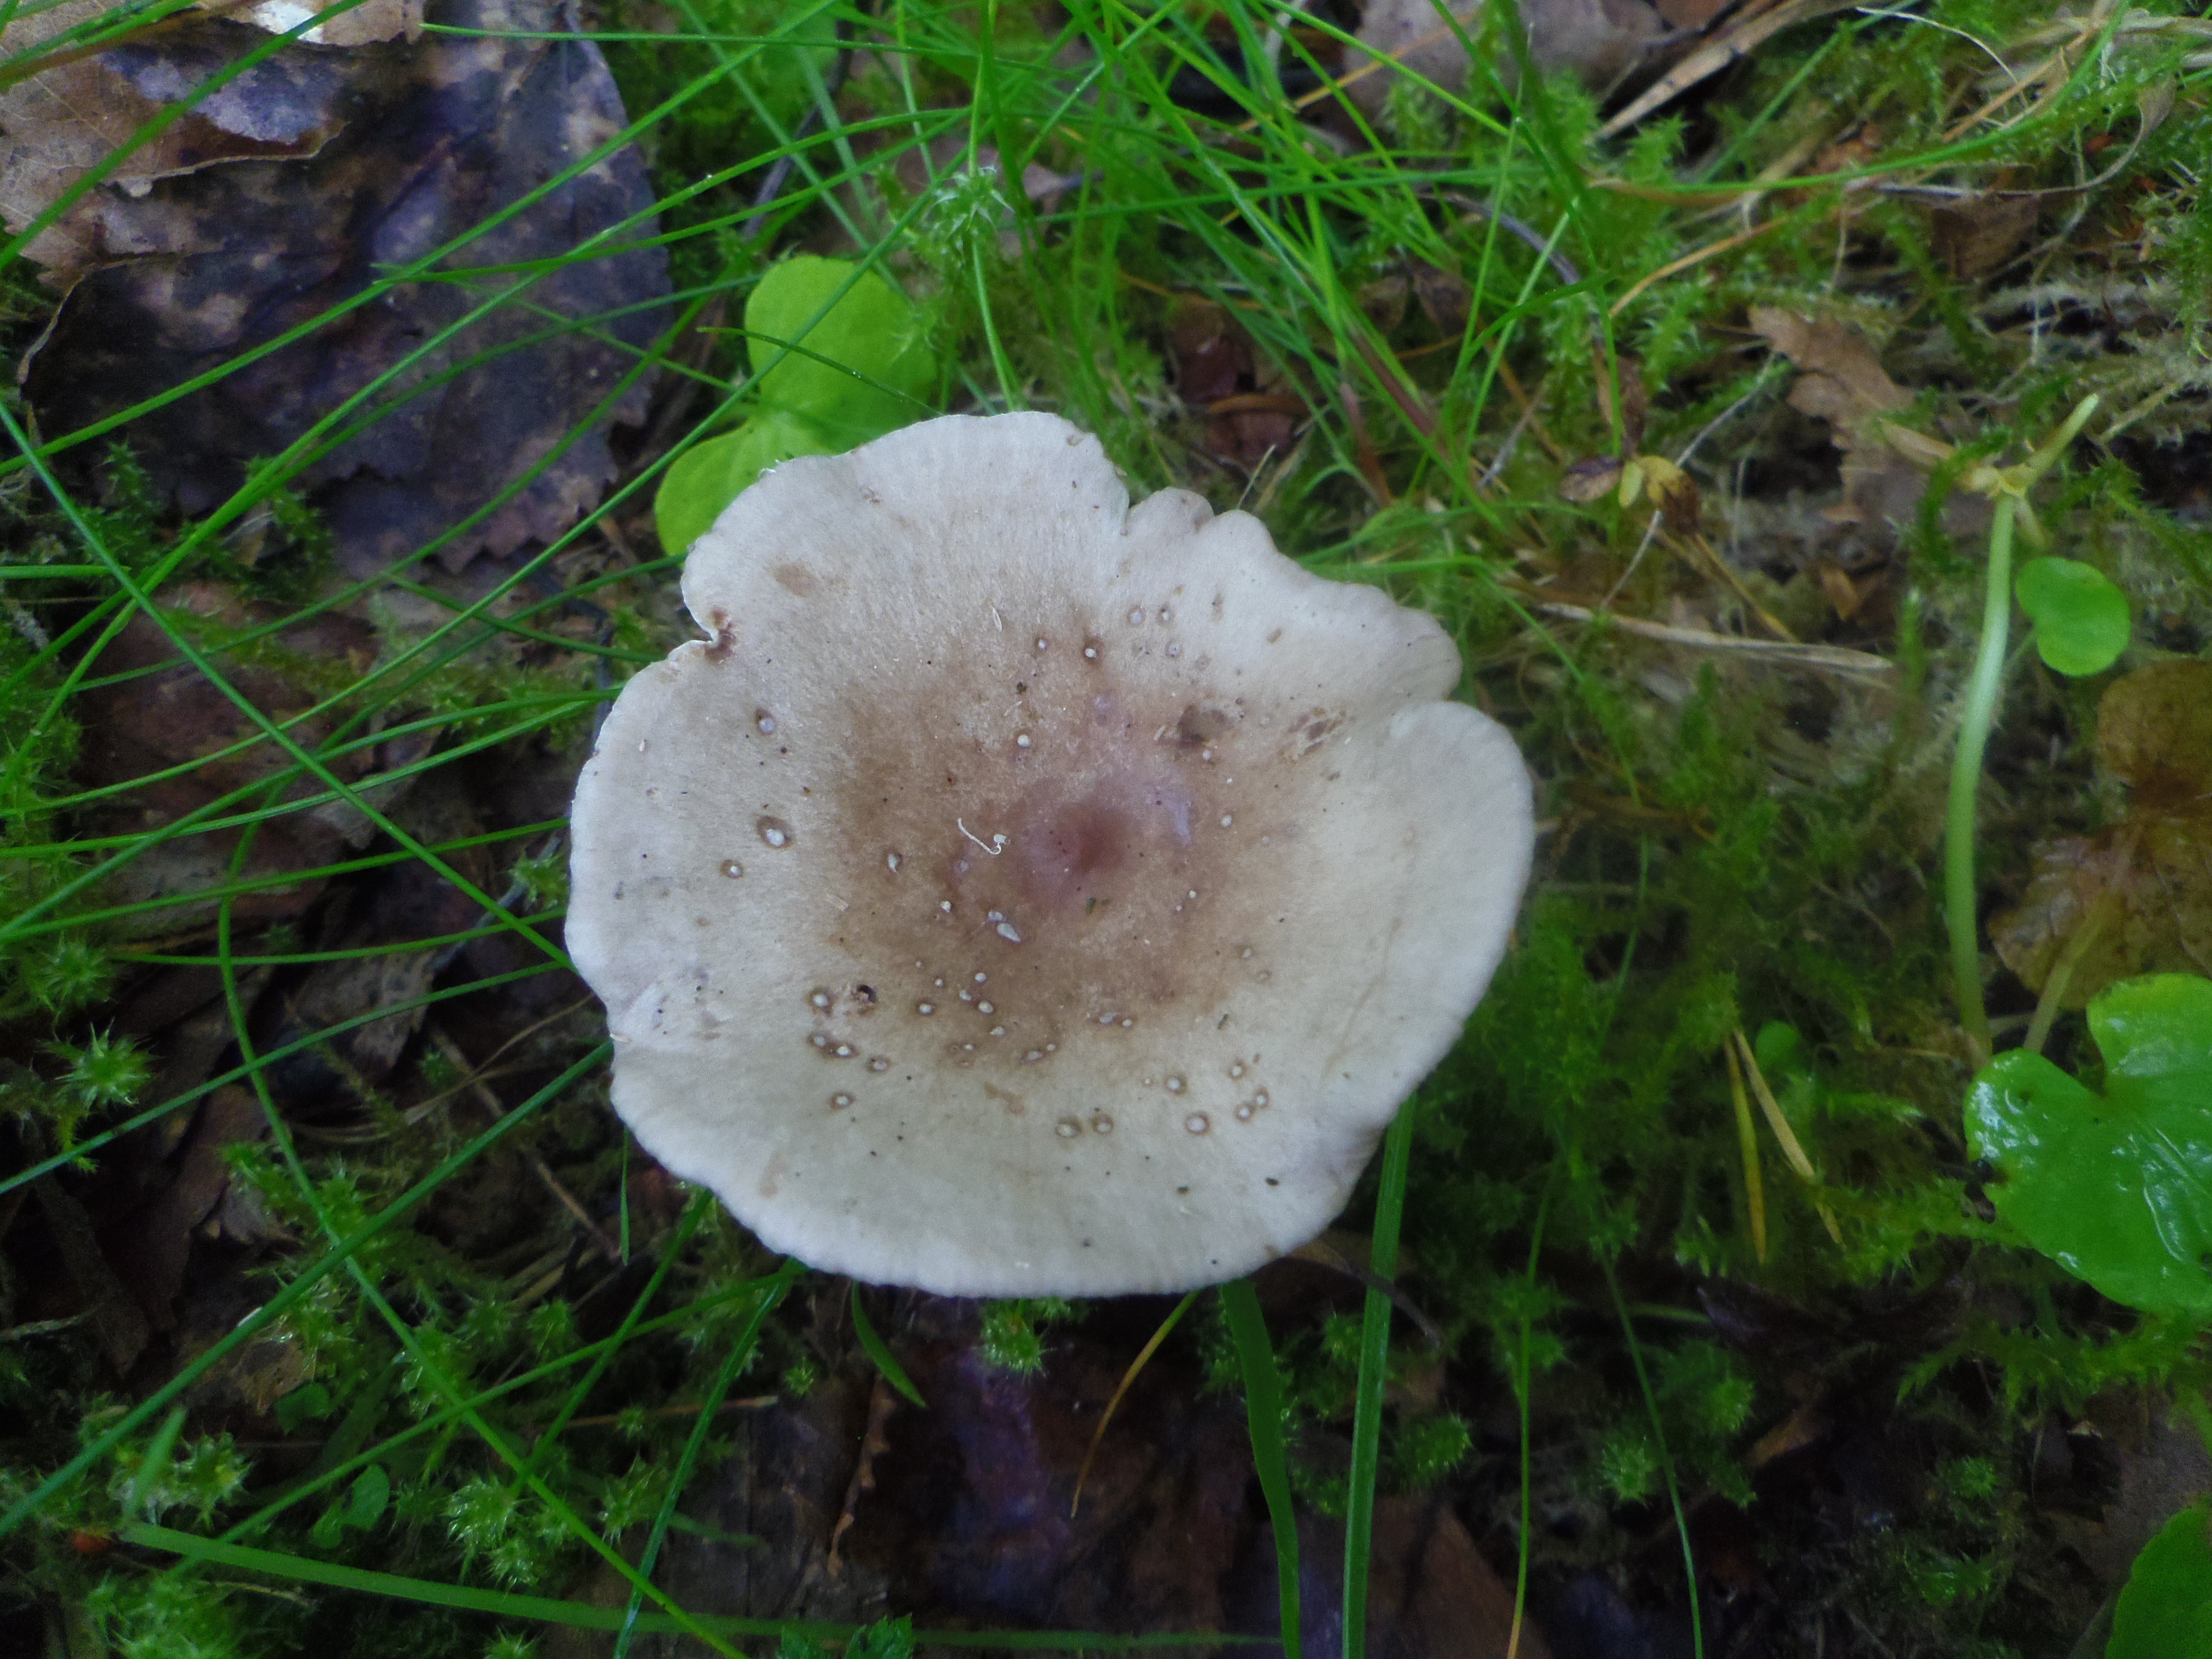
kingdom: Fungi
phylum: Basidiomycota
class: Agaricomycetes
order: Russulales
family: Russulaceae
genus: Lactarius
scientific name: Lactarius vietus
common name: Grey milk-cap
